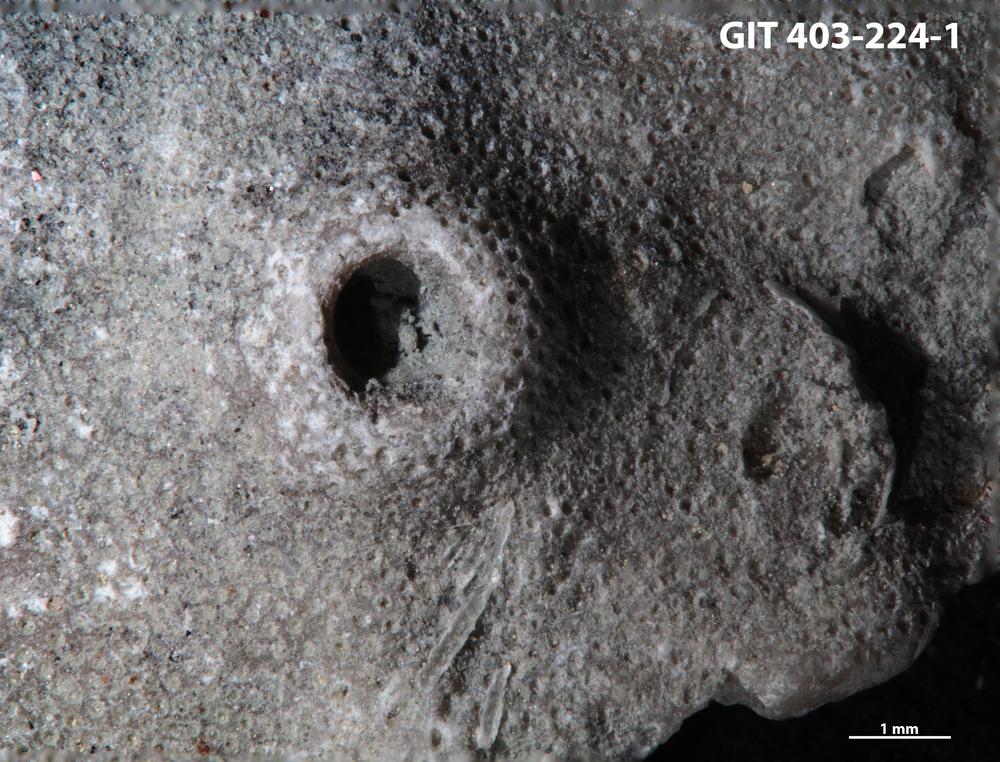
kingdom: Animalia
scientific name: Animalia
